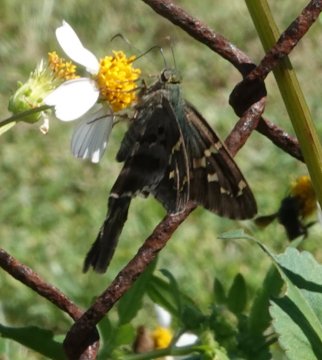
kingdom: Animalia
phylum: Arthropoda
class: Insecta
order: Lepidoptera
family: Hesperiidae
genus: Urbanus
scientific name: Urbanus proteus
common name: Long-tailed Skipper
